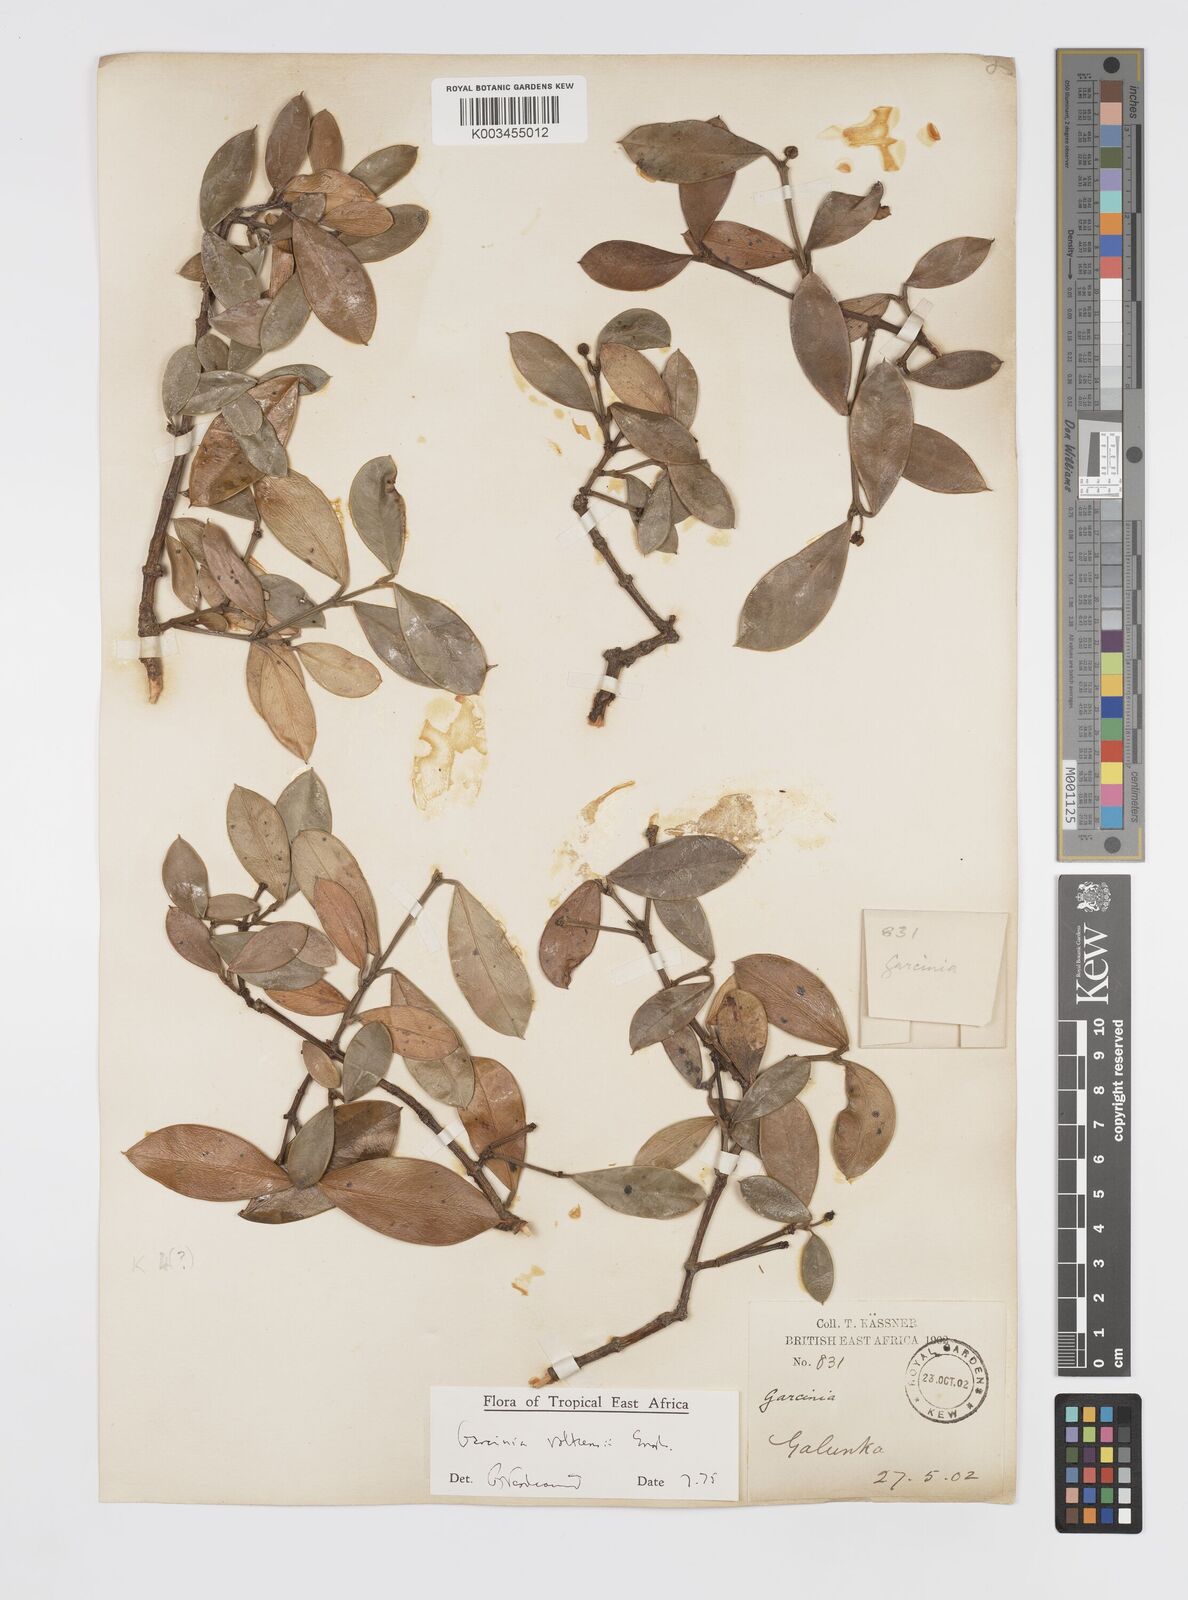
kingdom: Plantae
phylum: Tracheophyta
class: Magnoliopsida
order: Malpighiales
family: Clusiaceae
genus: Garcinia
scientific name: Garcinia volkensii
